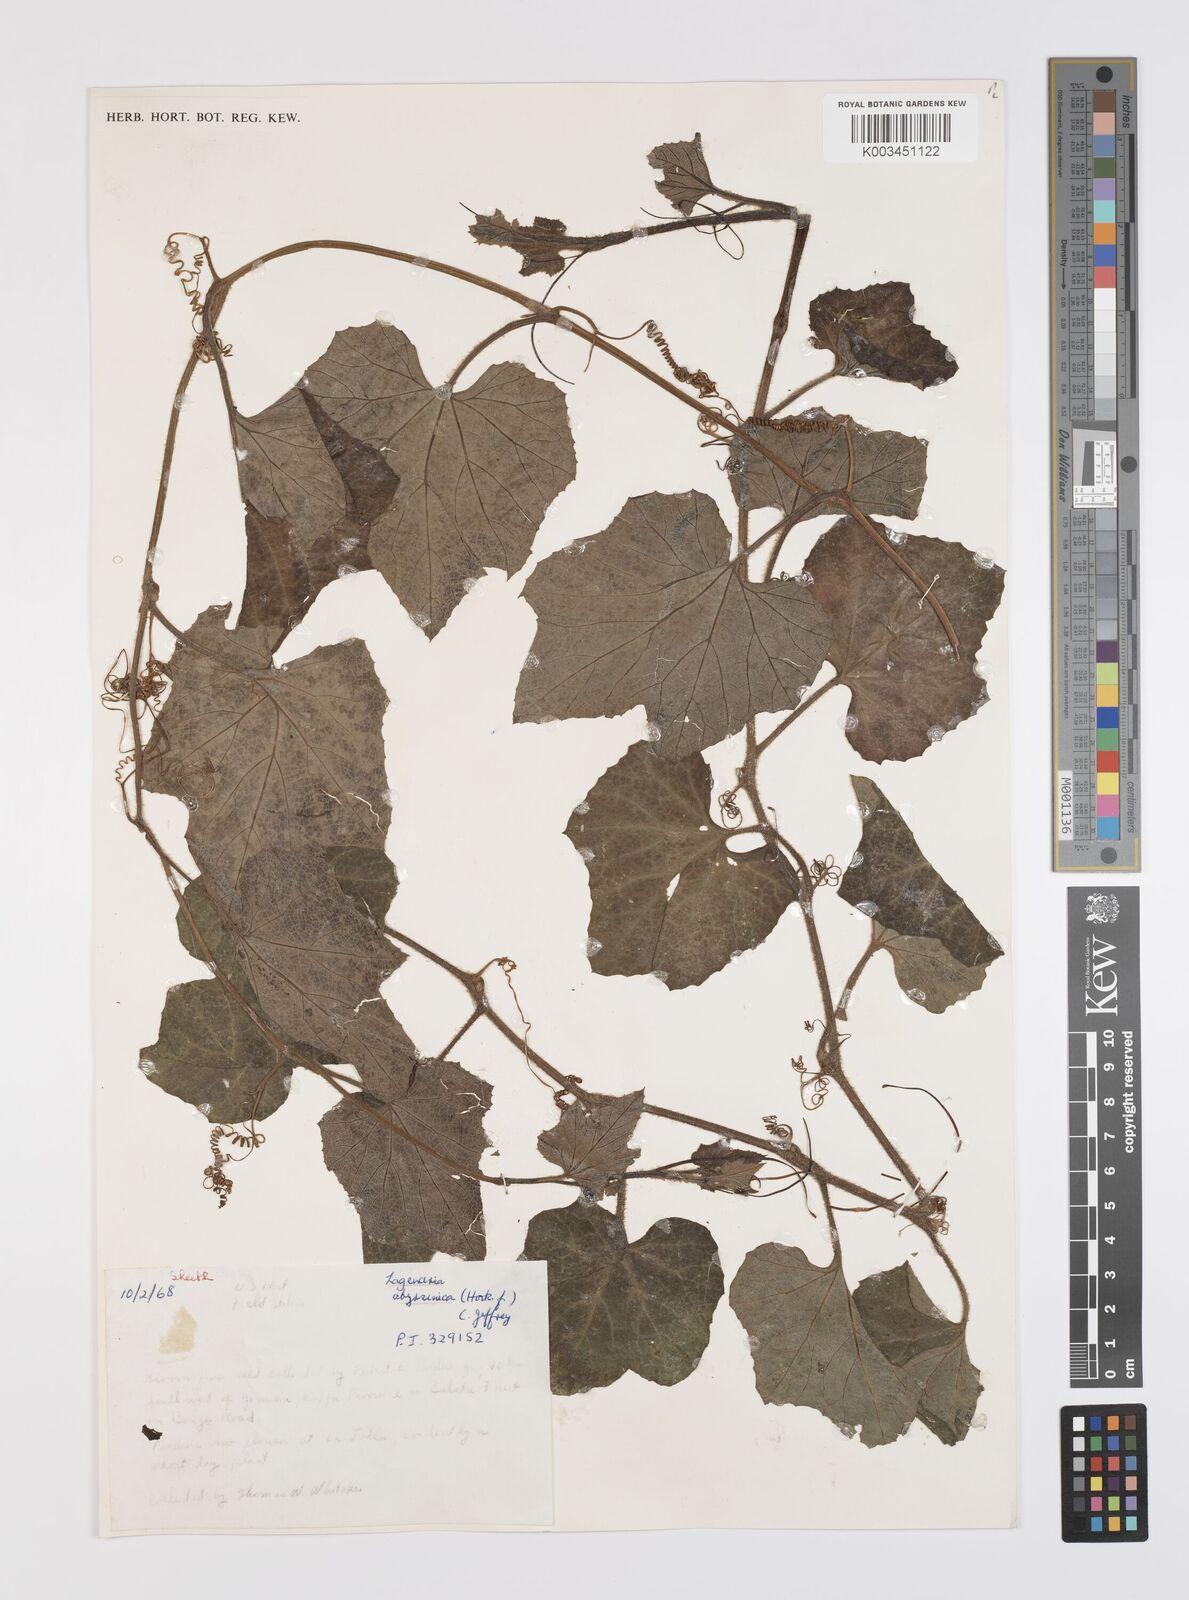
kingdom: Plantae
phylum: Tracheophyta
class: Magnoliopsida
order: Cucurbitales
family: Cucurbitaceae
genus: Lagenaria
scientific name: Lagenaria abyssinica
